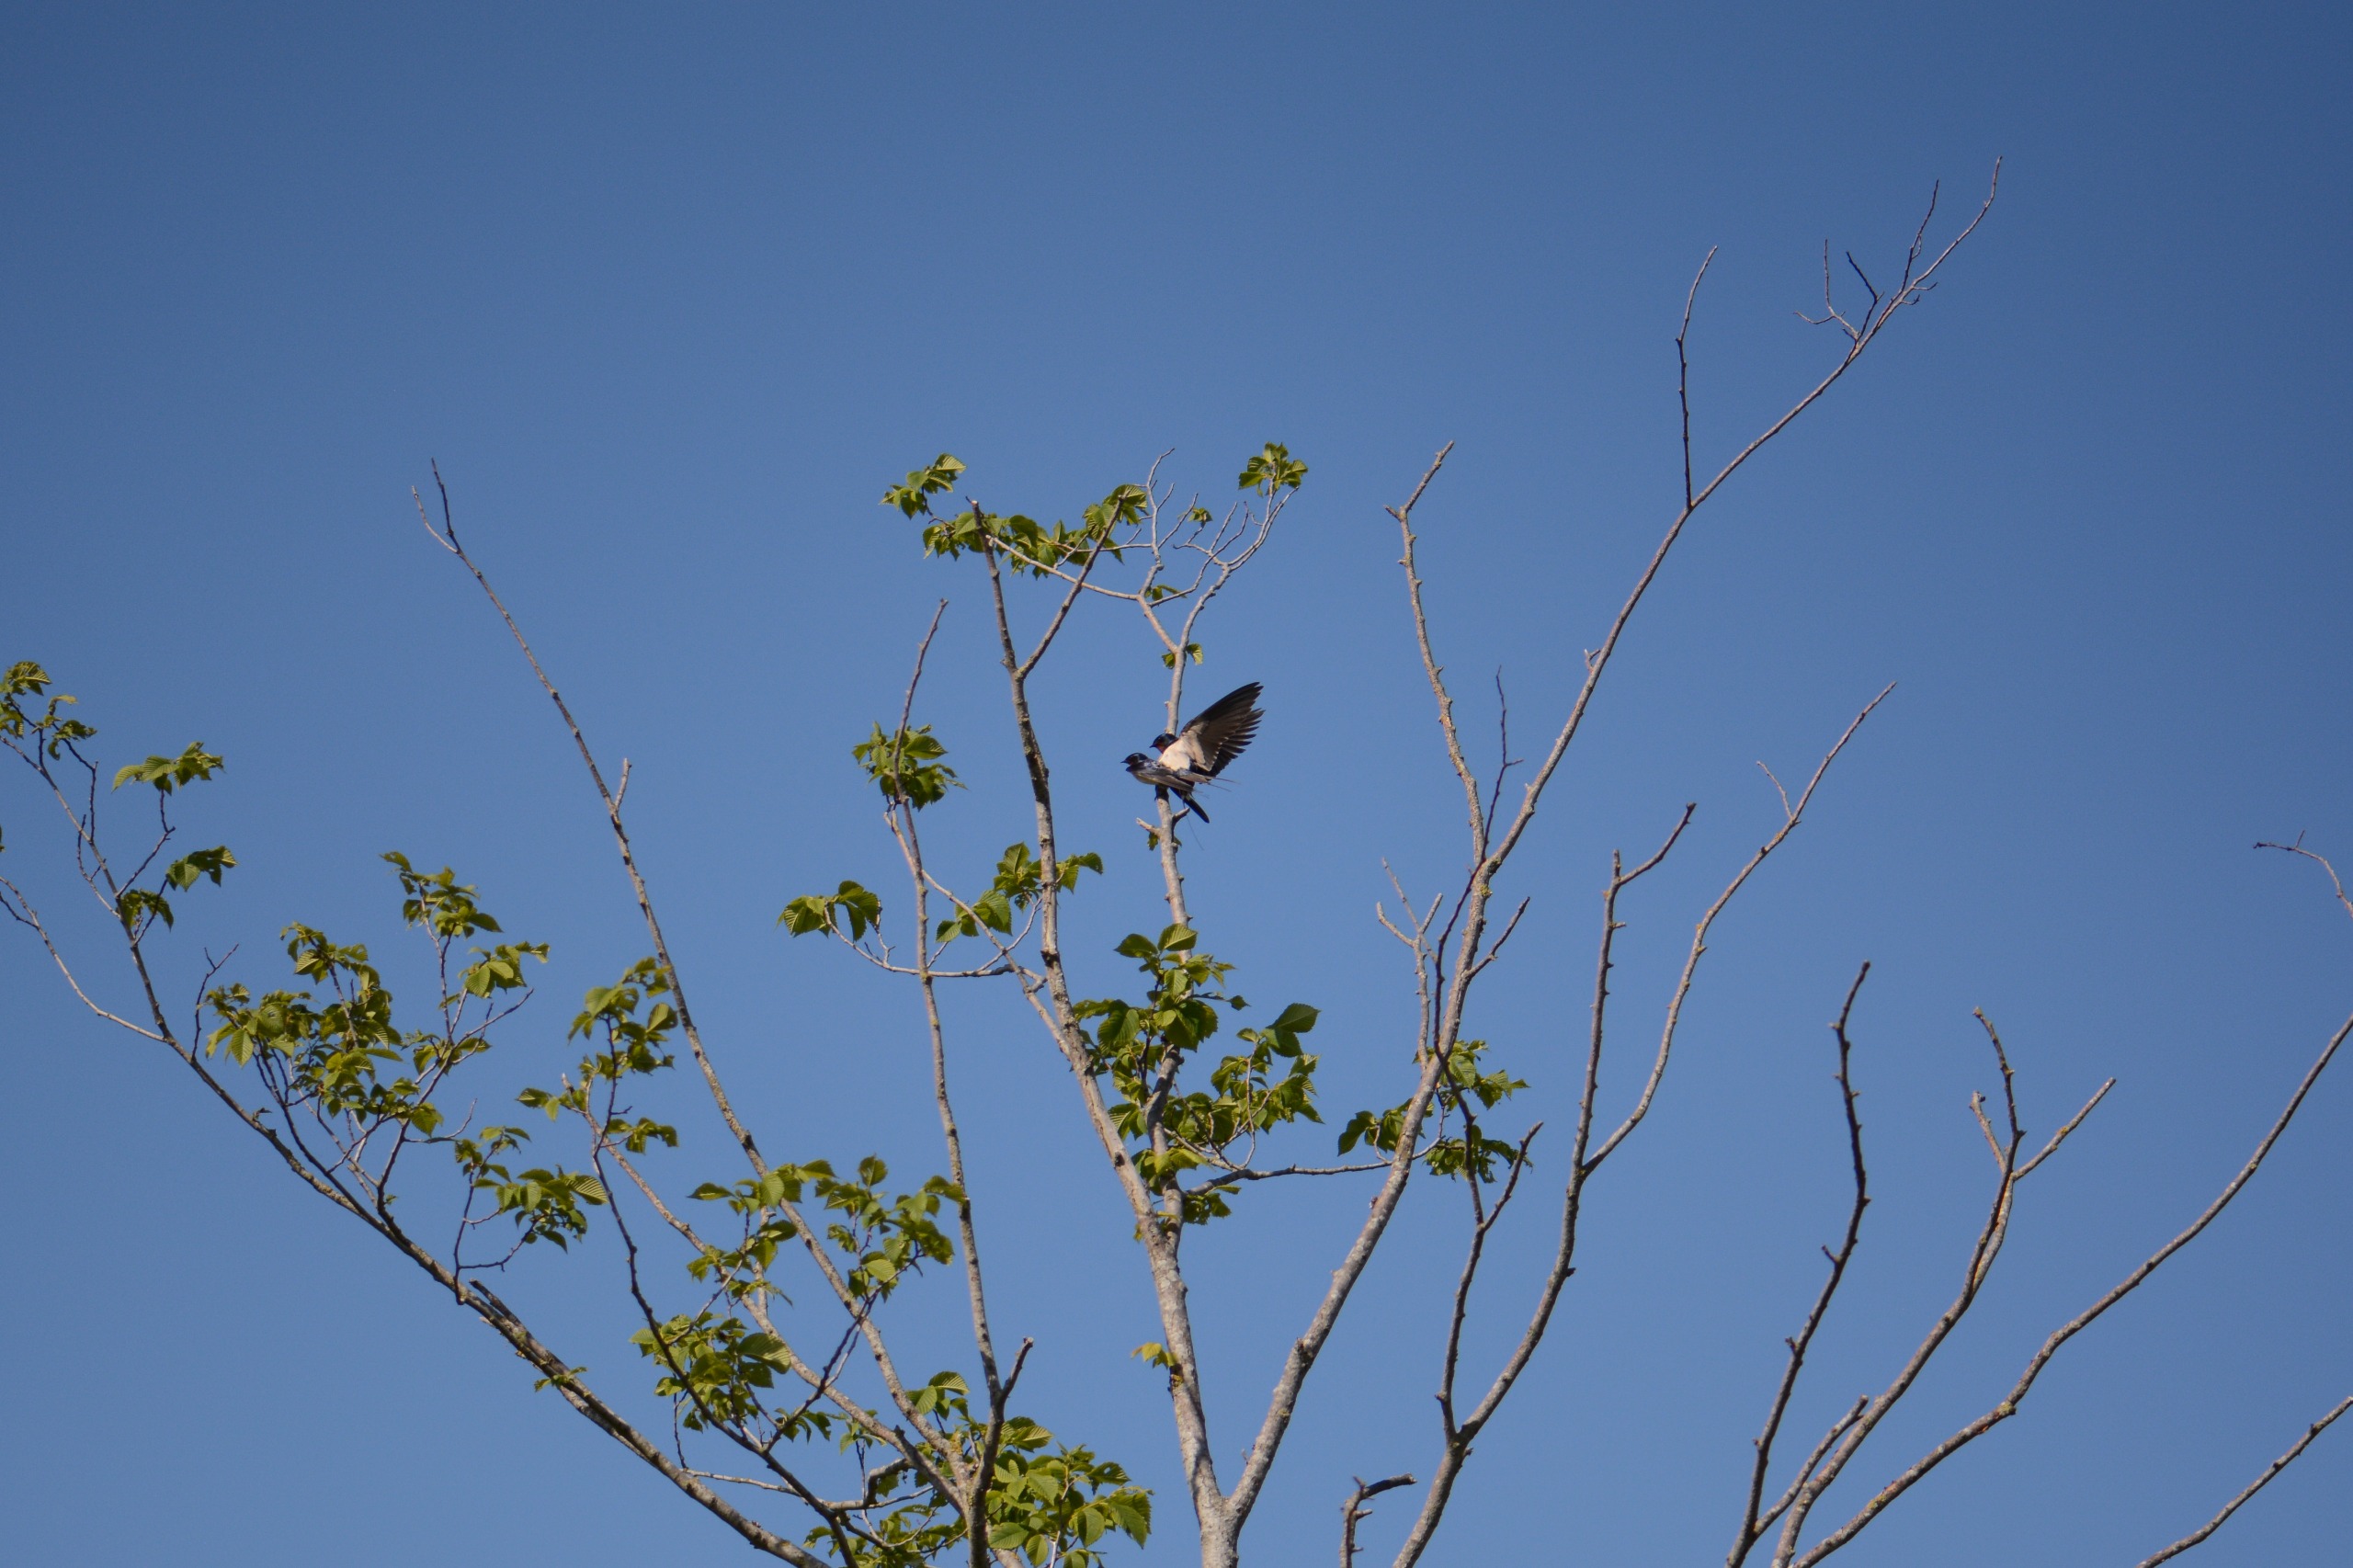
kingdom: Animalia
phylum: Chordata
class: Aves
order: Passeriformes
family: Hirundinidae
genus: Hirundo
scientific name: Hirundo rustica
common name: Landsvale
